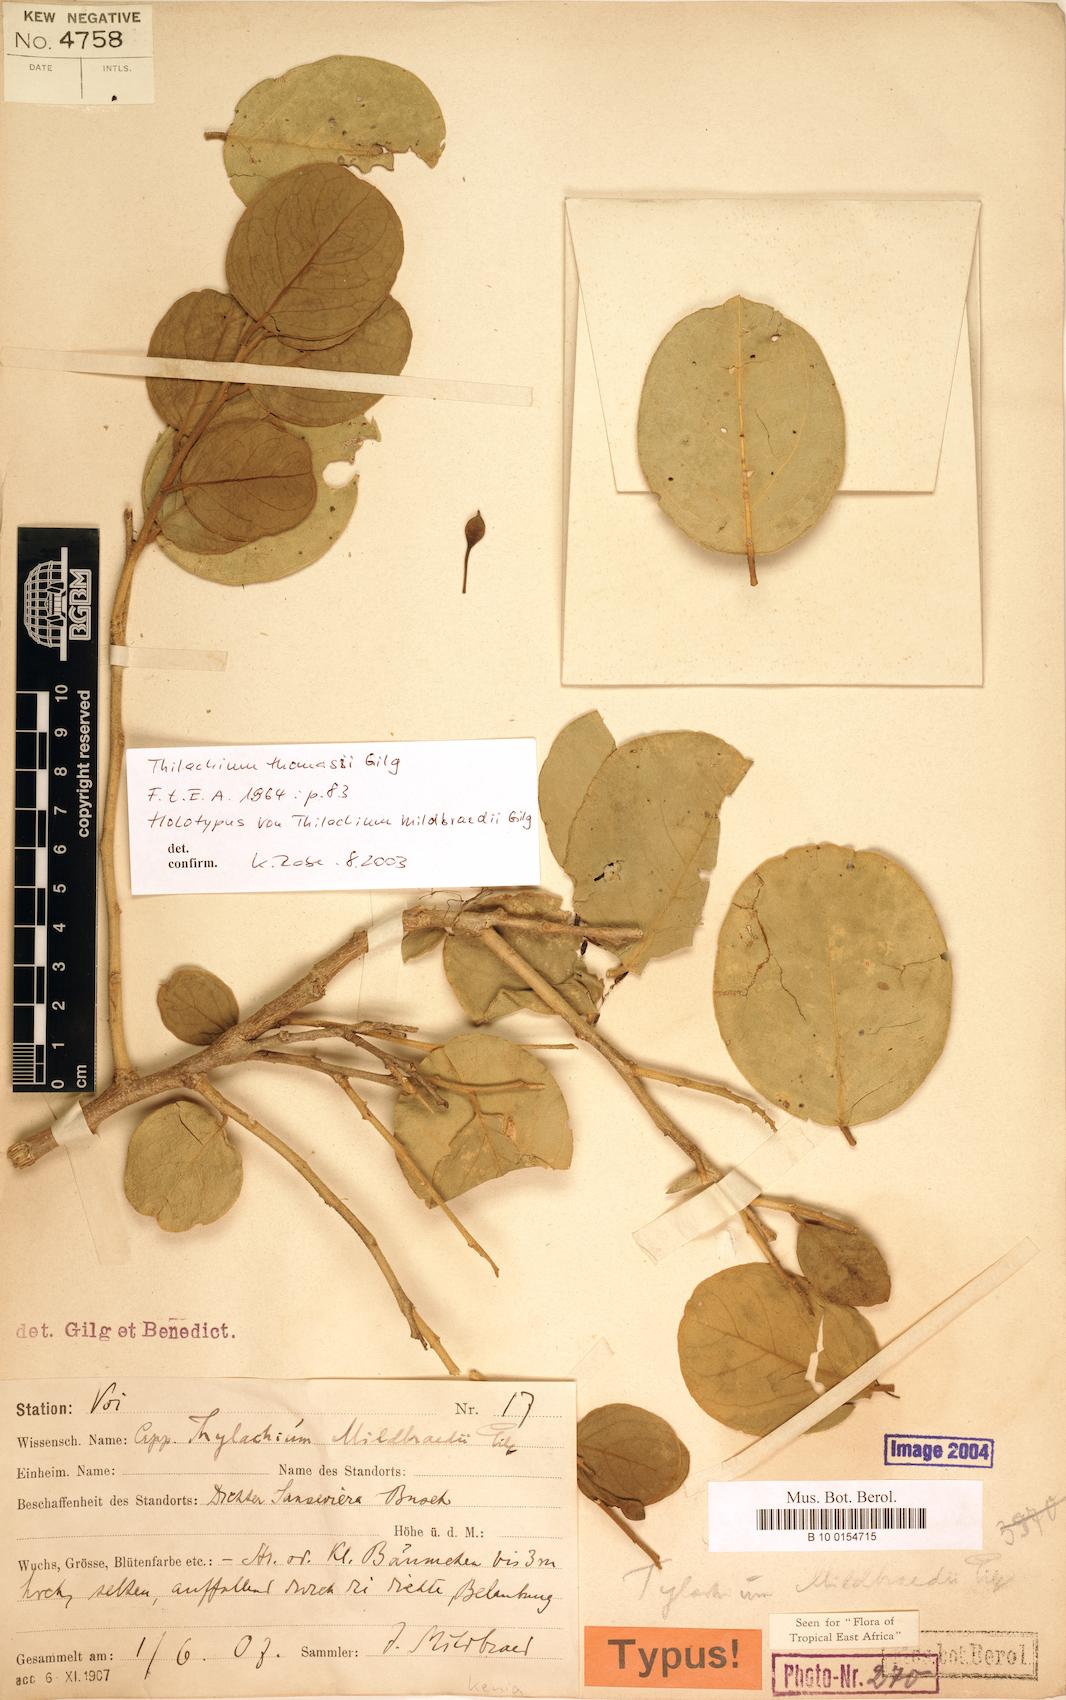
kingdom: Plantae
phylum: Tracheophyta
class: Magnoliopsida
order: Brassicales
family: Capparaceae
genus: Thilachium
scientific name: Thilachium thomasii
